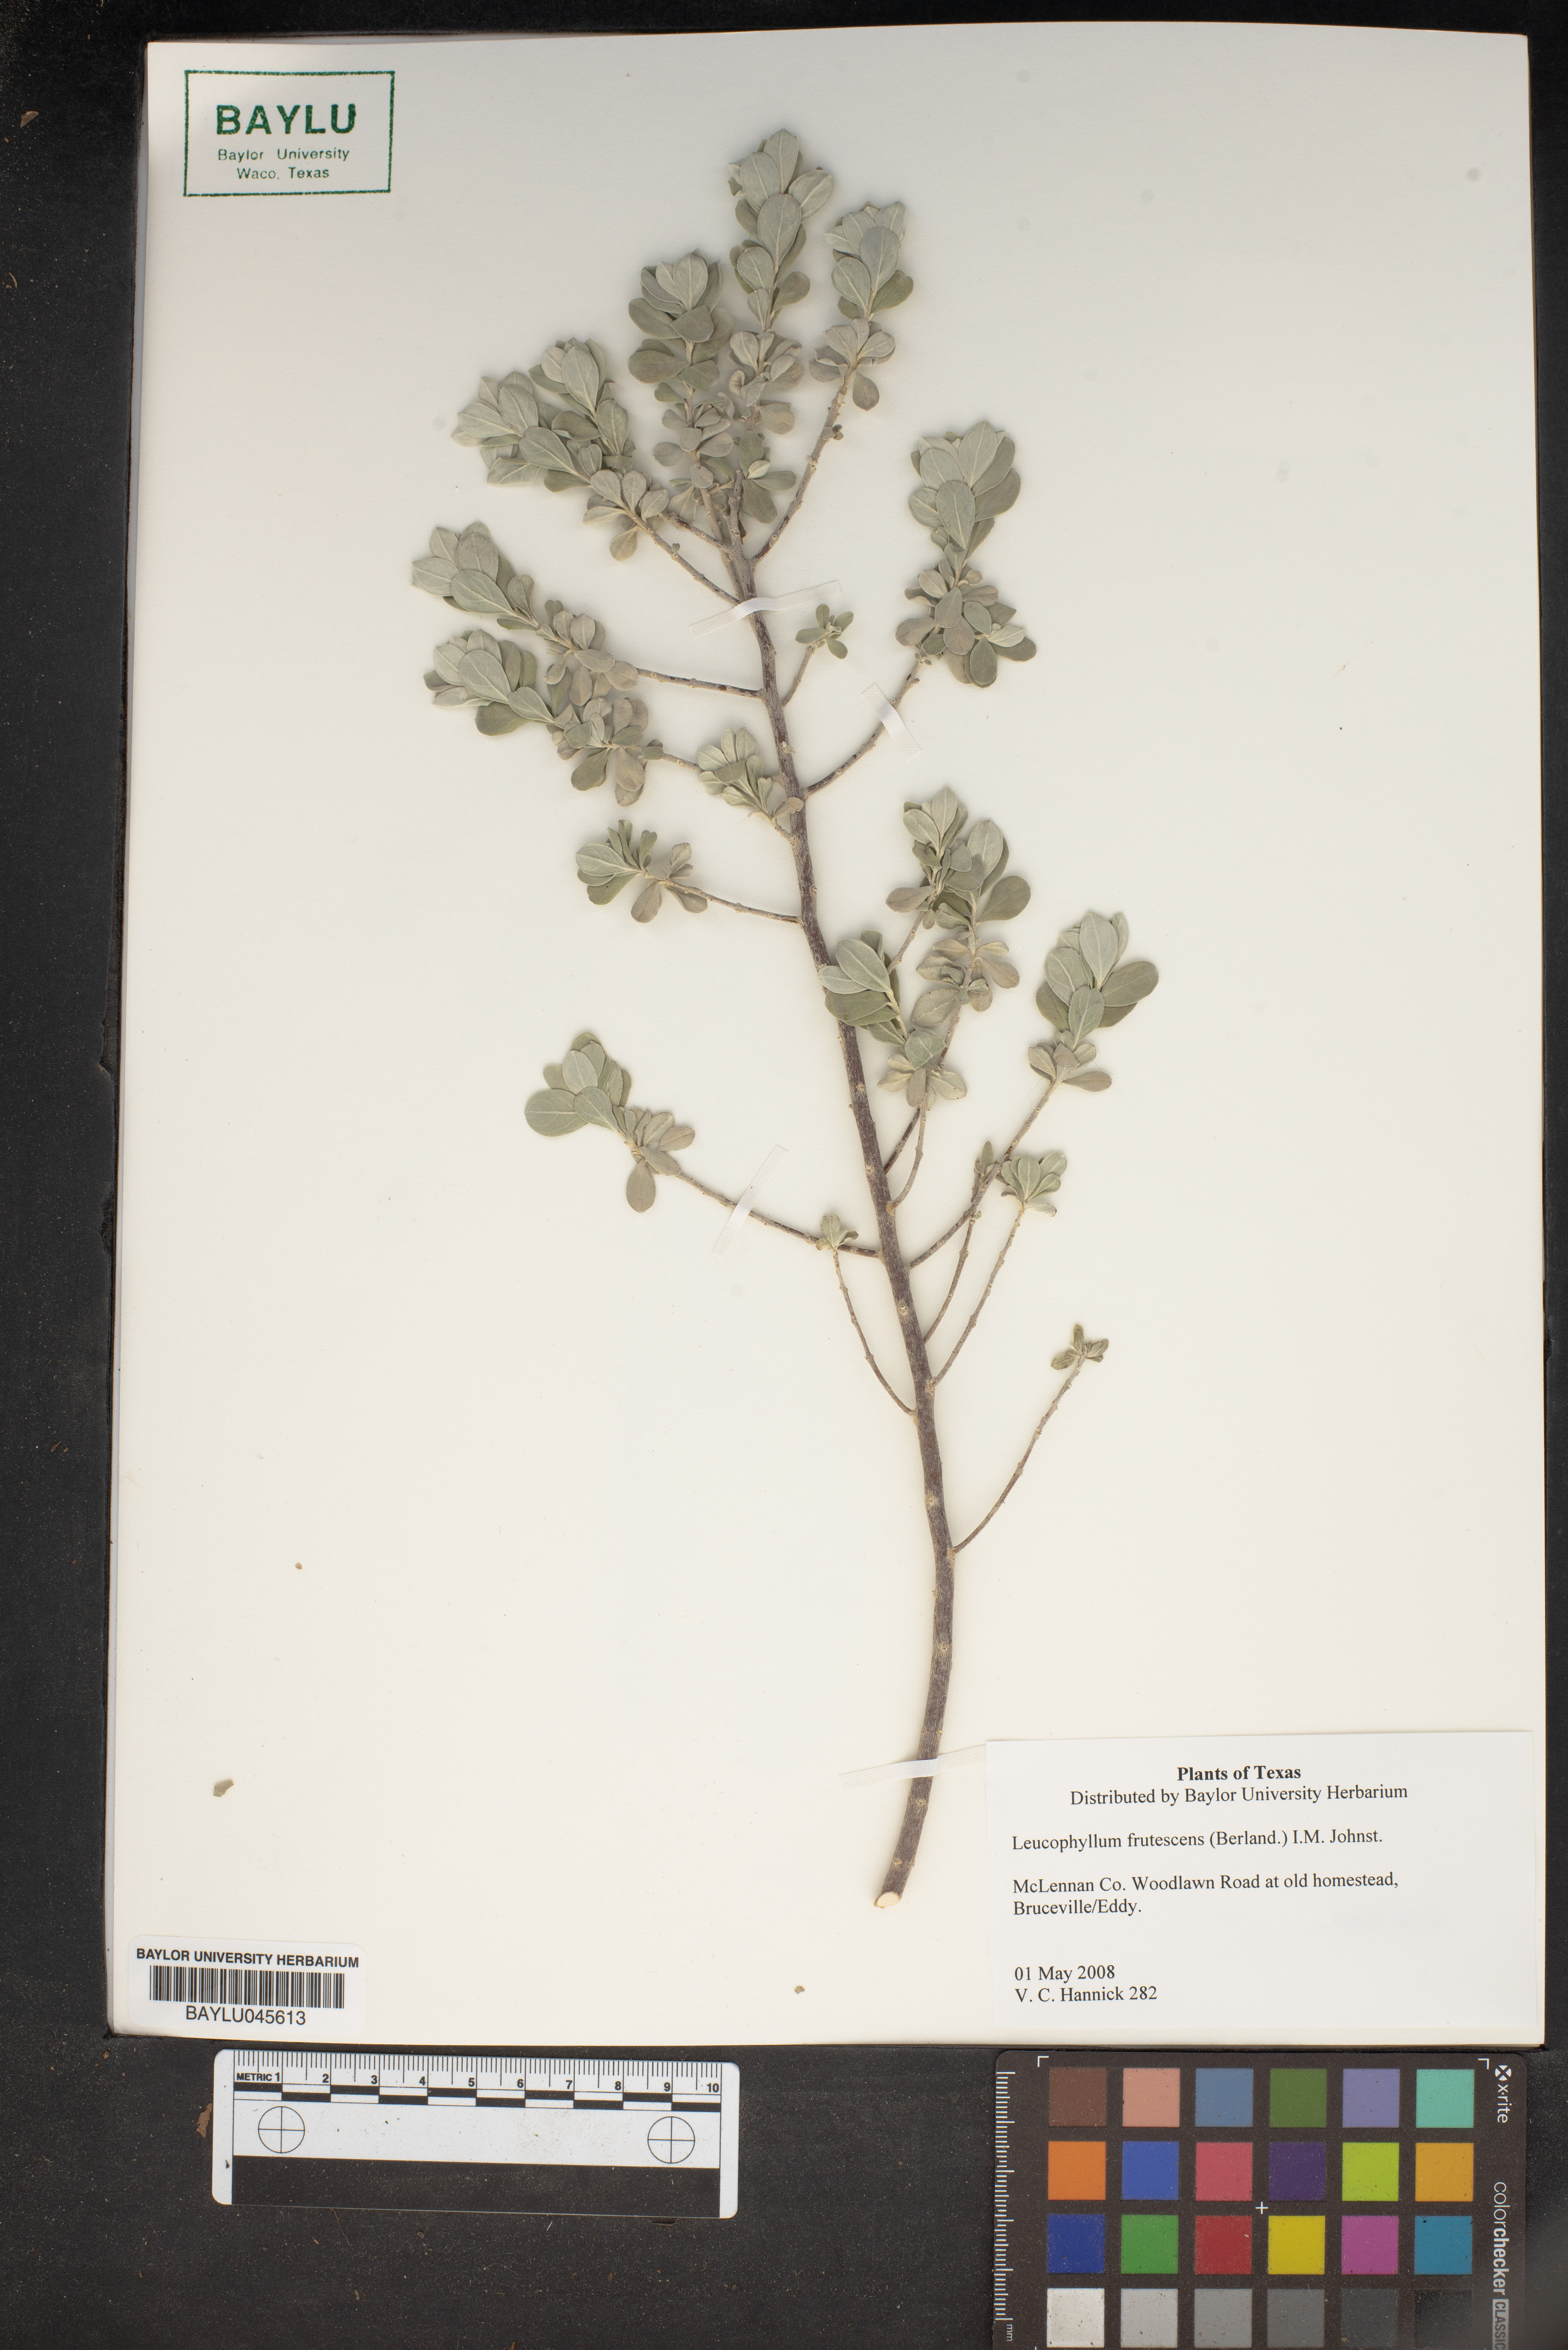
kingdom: Plantae
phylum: Tracheophyta
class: Magnoliopsida
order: Lamiales
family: Scrophulariaceae
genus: Leucophyllum
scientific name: Leucophyllum frutescens
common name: Texas silverleaf
